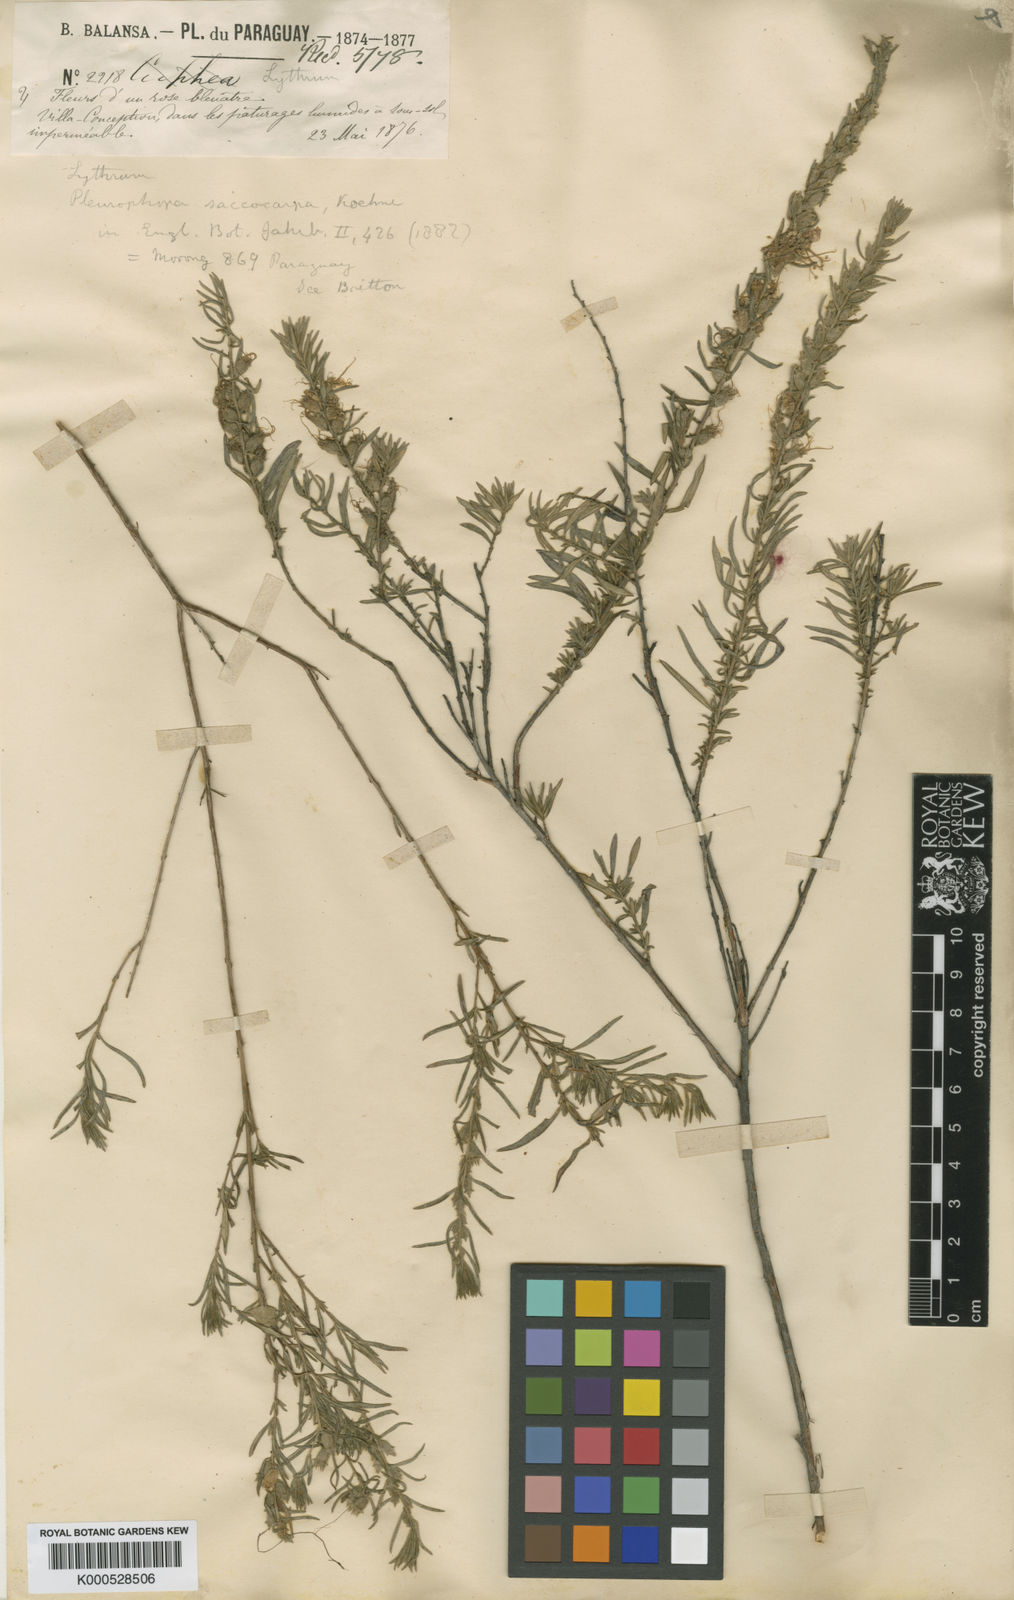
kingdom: Plantae
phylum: Tracheophyta
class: Magnoliopsida
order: Myrtales
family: Lythraceae
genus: Pleurophora
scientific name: Pleurophora saccocarpa
